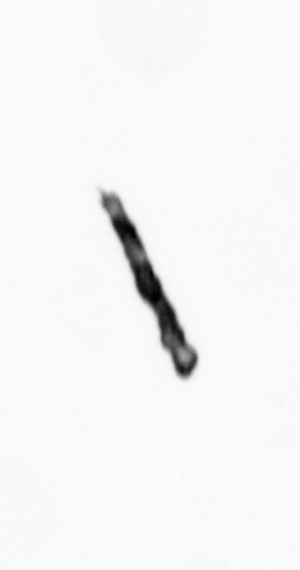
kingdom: Bacteria
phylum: Cyanobacteria
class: Cyanobacteriia
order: Cyanobacteriales
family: Microcoleaceae
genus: Trichodesmium
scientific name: Trichodesmium
